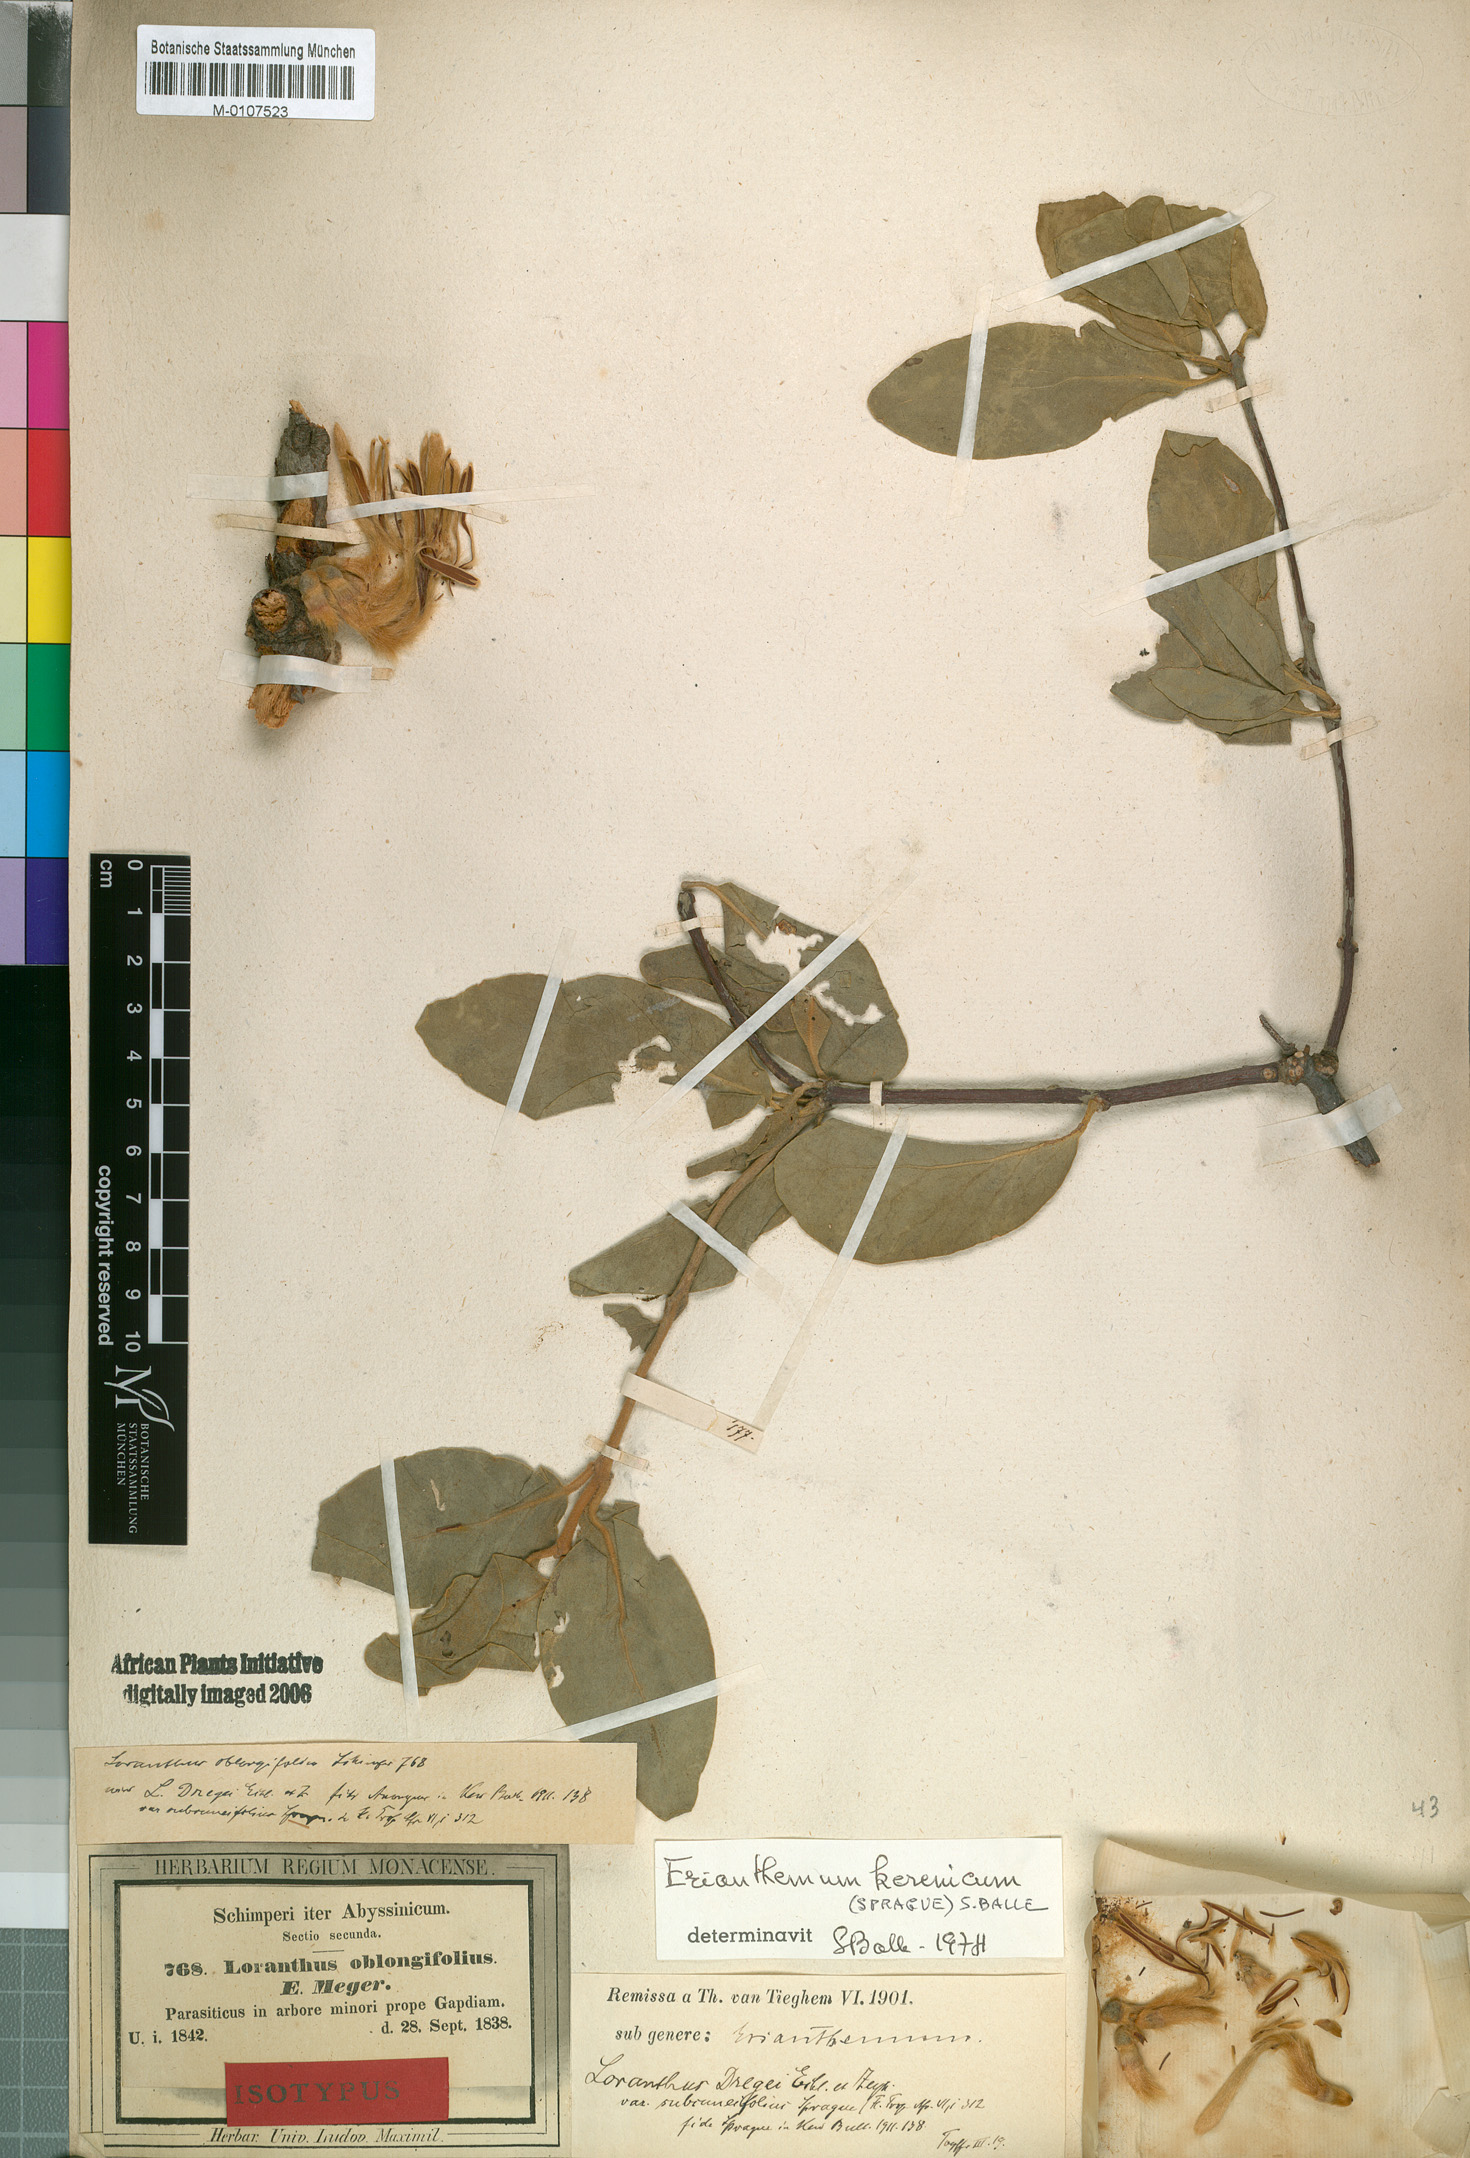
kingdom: Plantae
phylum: Tracheophyta
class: Magnoliopsida
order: Santalales
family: Loranthaceae
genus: Erianthemum
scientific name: Erianthemum dregei
